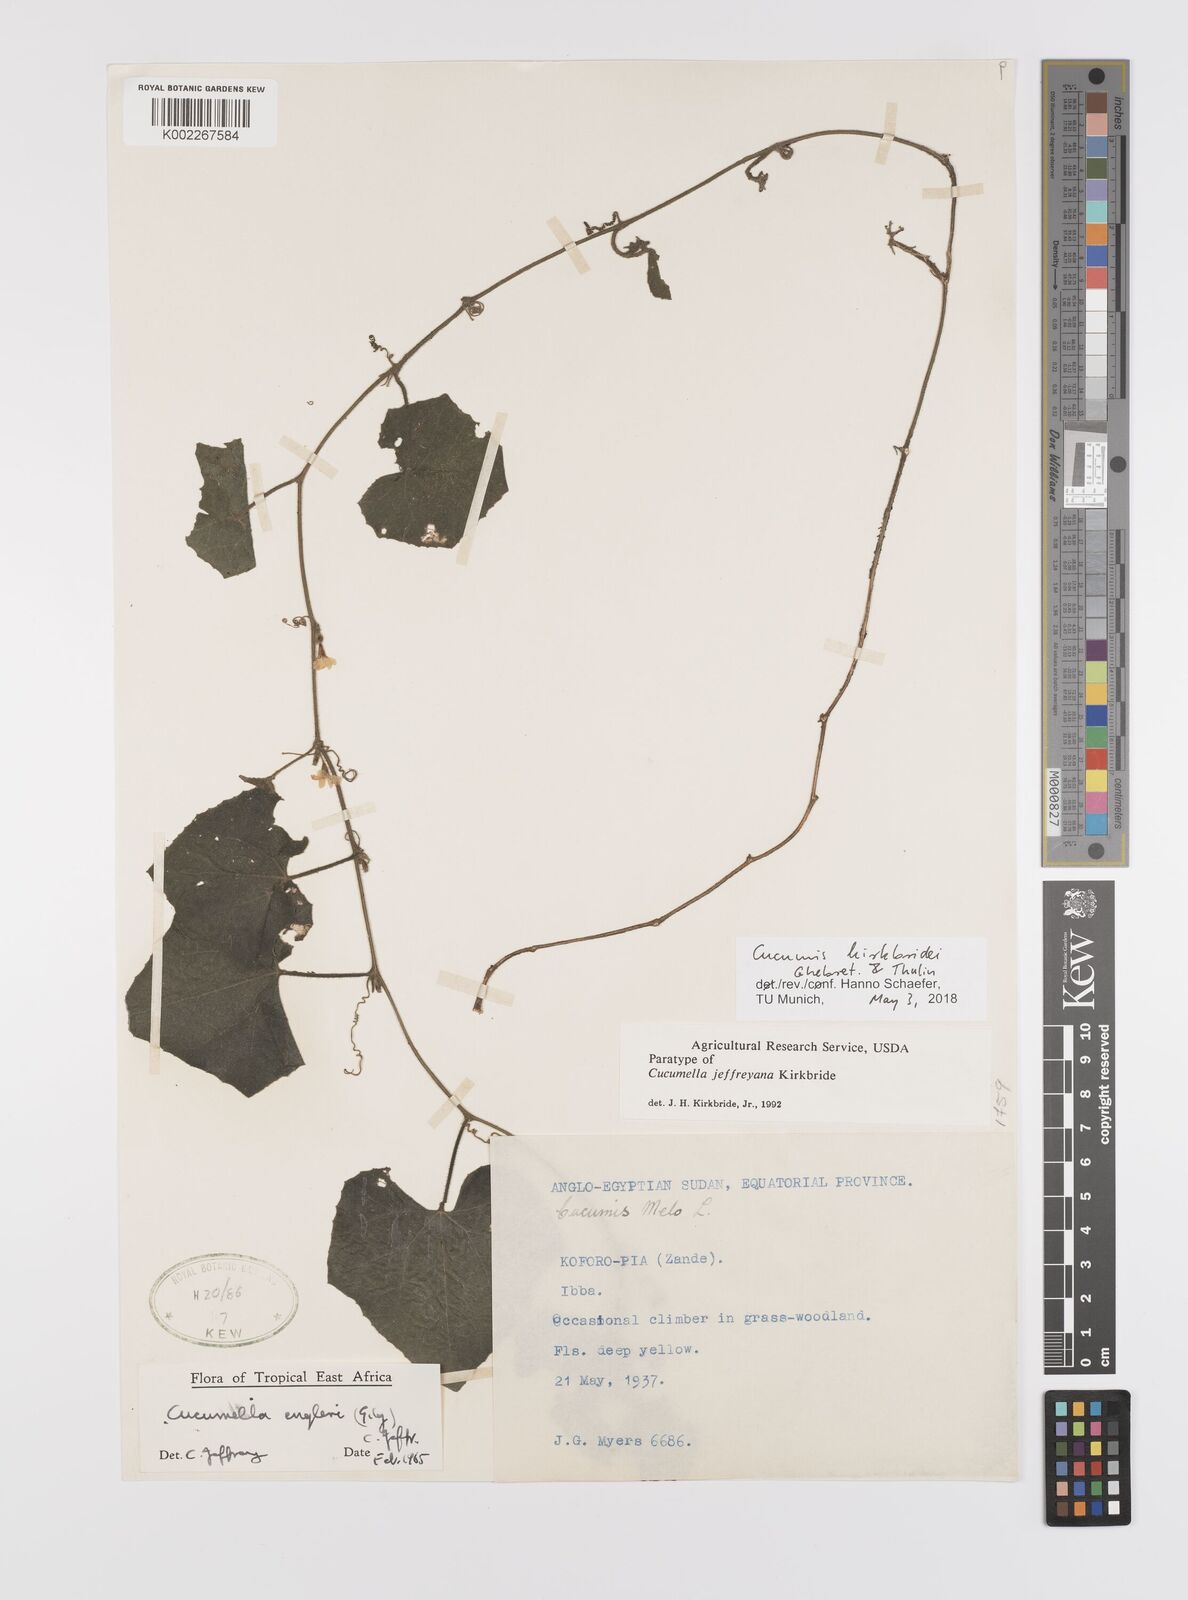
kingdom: Plantae
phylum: Tracheophyta
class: Magnoliopsida
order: Cucurbitales
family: Cucurbitaceae
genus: Cucumis
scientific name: Cucumis kirkbridei
